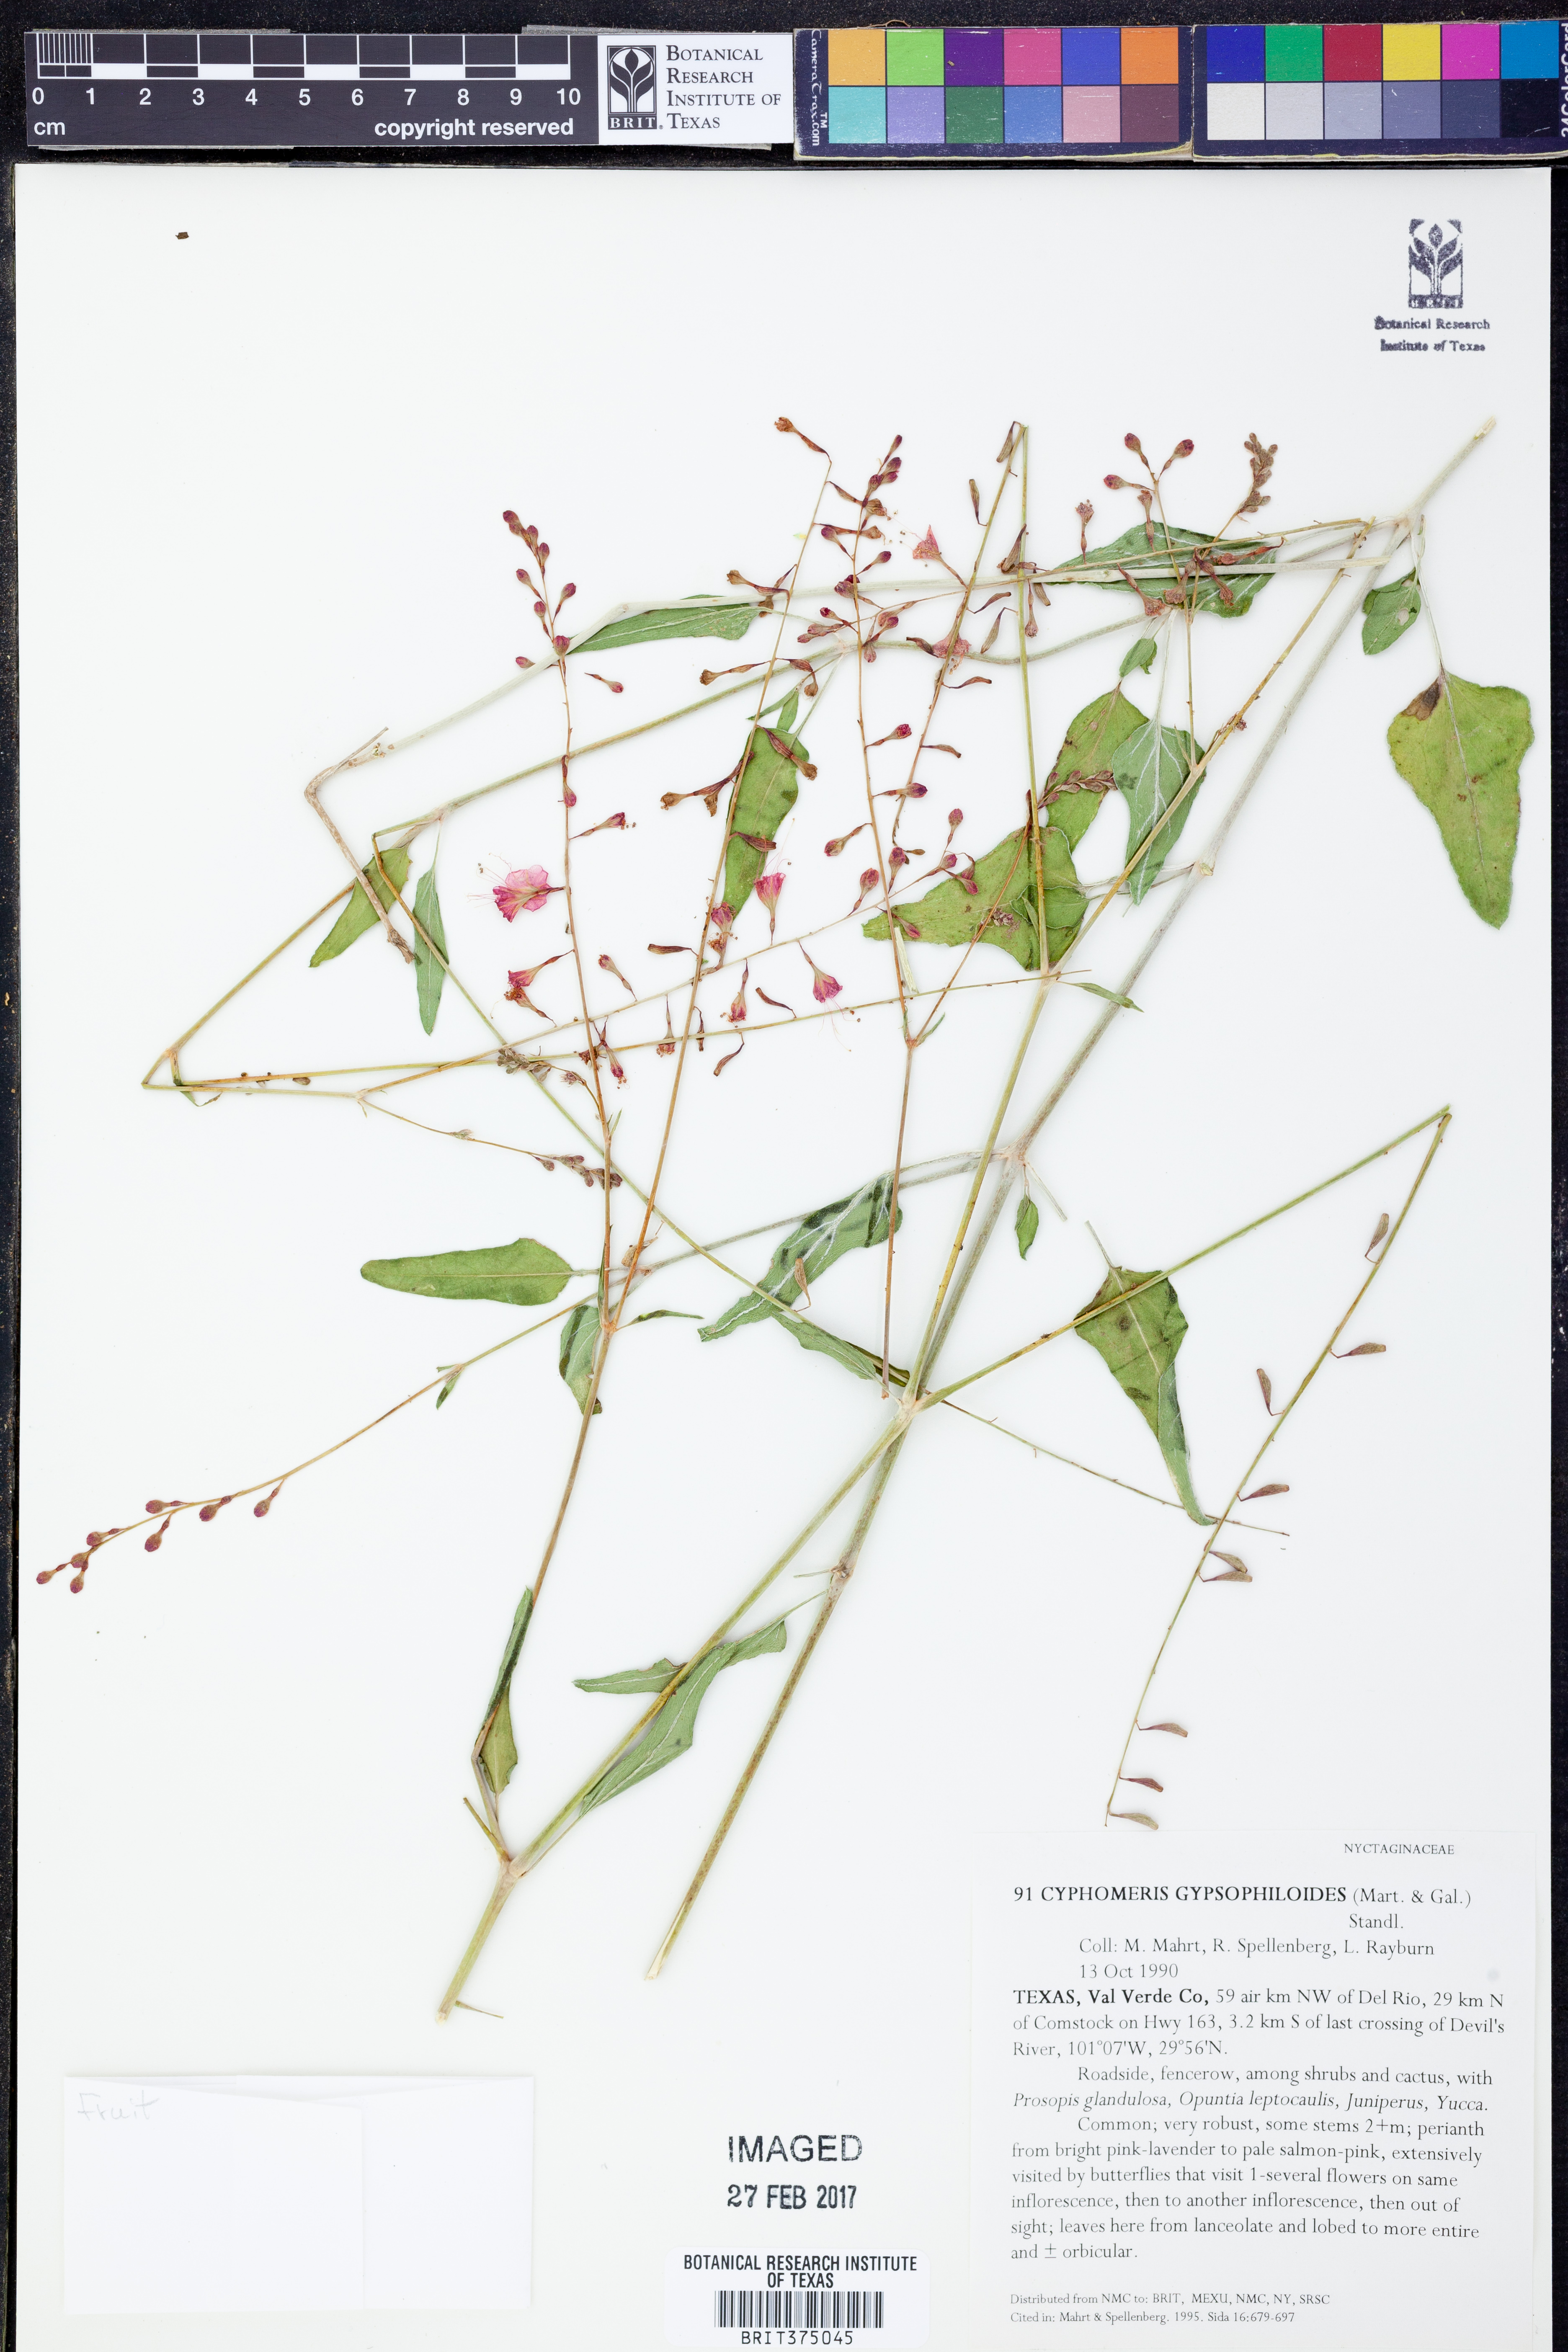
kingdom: Plantae
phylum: Tracheophyta
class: Magnoliopsida
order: Caryophyllales
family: Nyctaginaceae
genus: Cyphomeris
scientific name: Cyphomeris gypsophiloides
